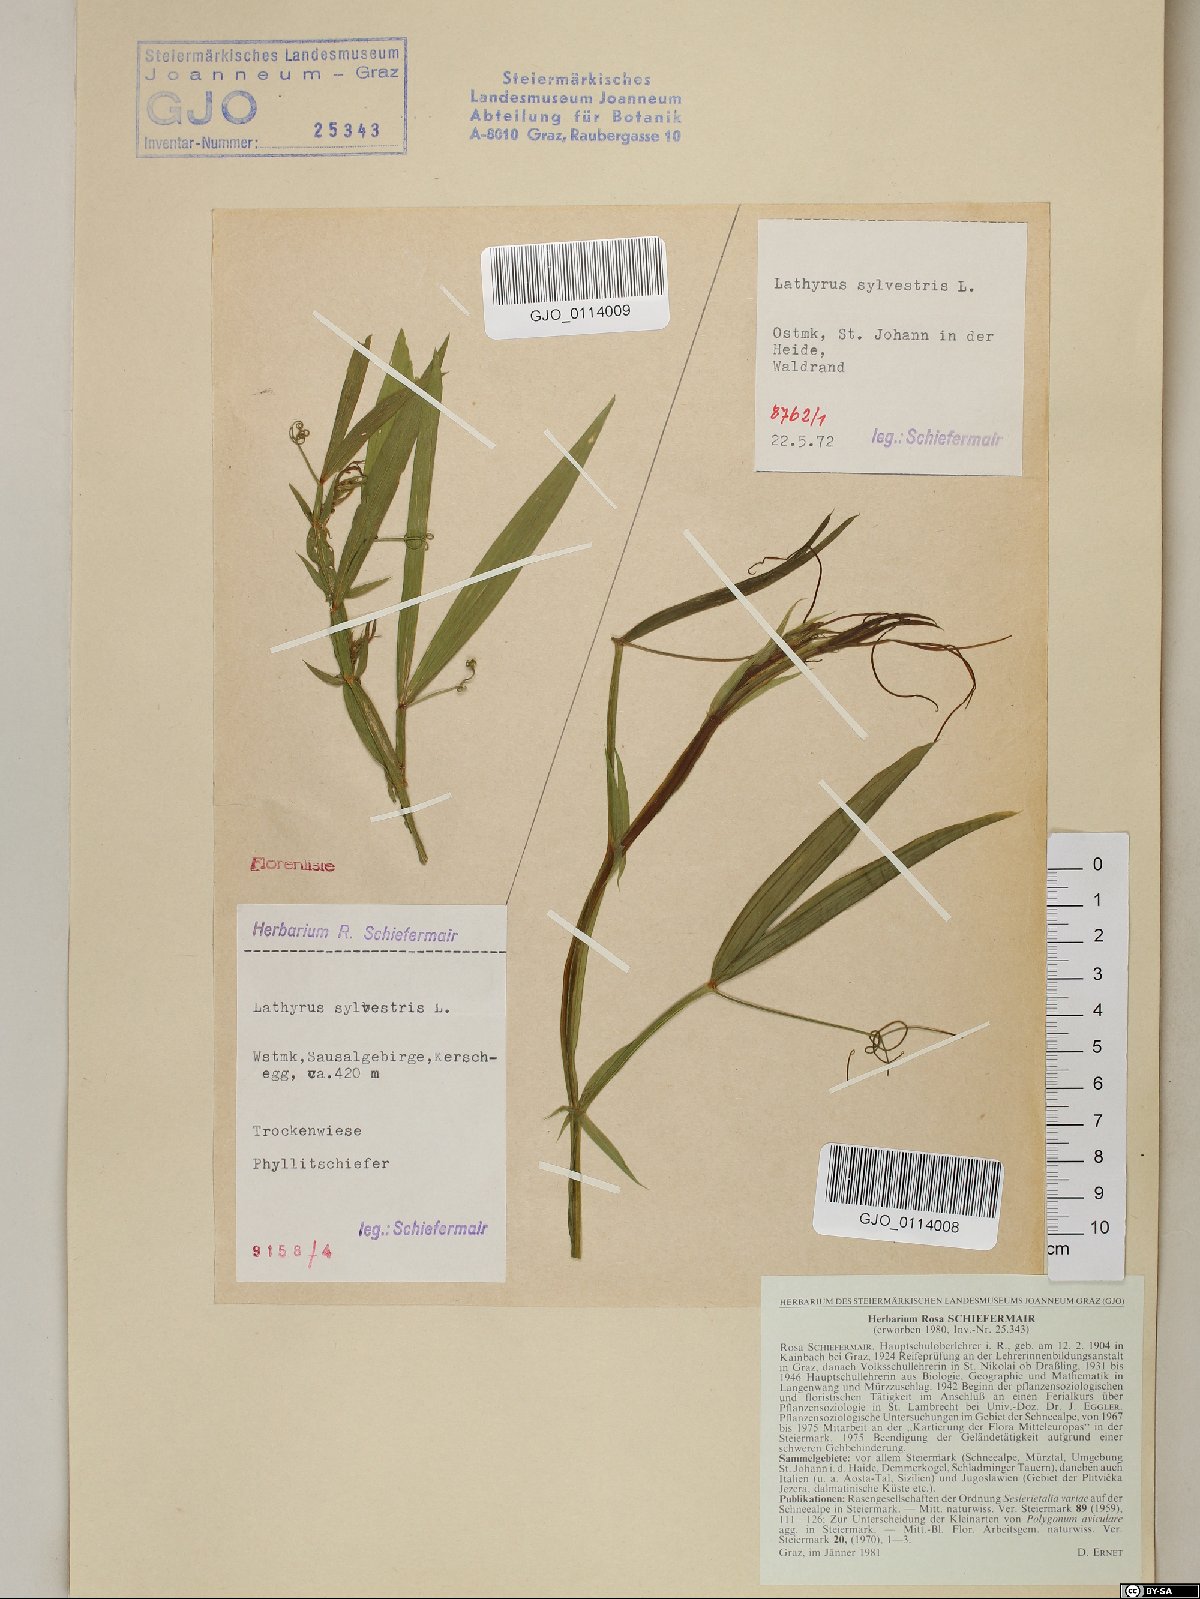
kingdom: Plantae
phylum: Tracheophyta
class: Magnoliopsida
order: Fabales
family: Fabaceae
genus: Lathyrus
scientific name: Lathyrus sylvestris
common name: Flat pea
